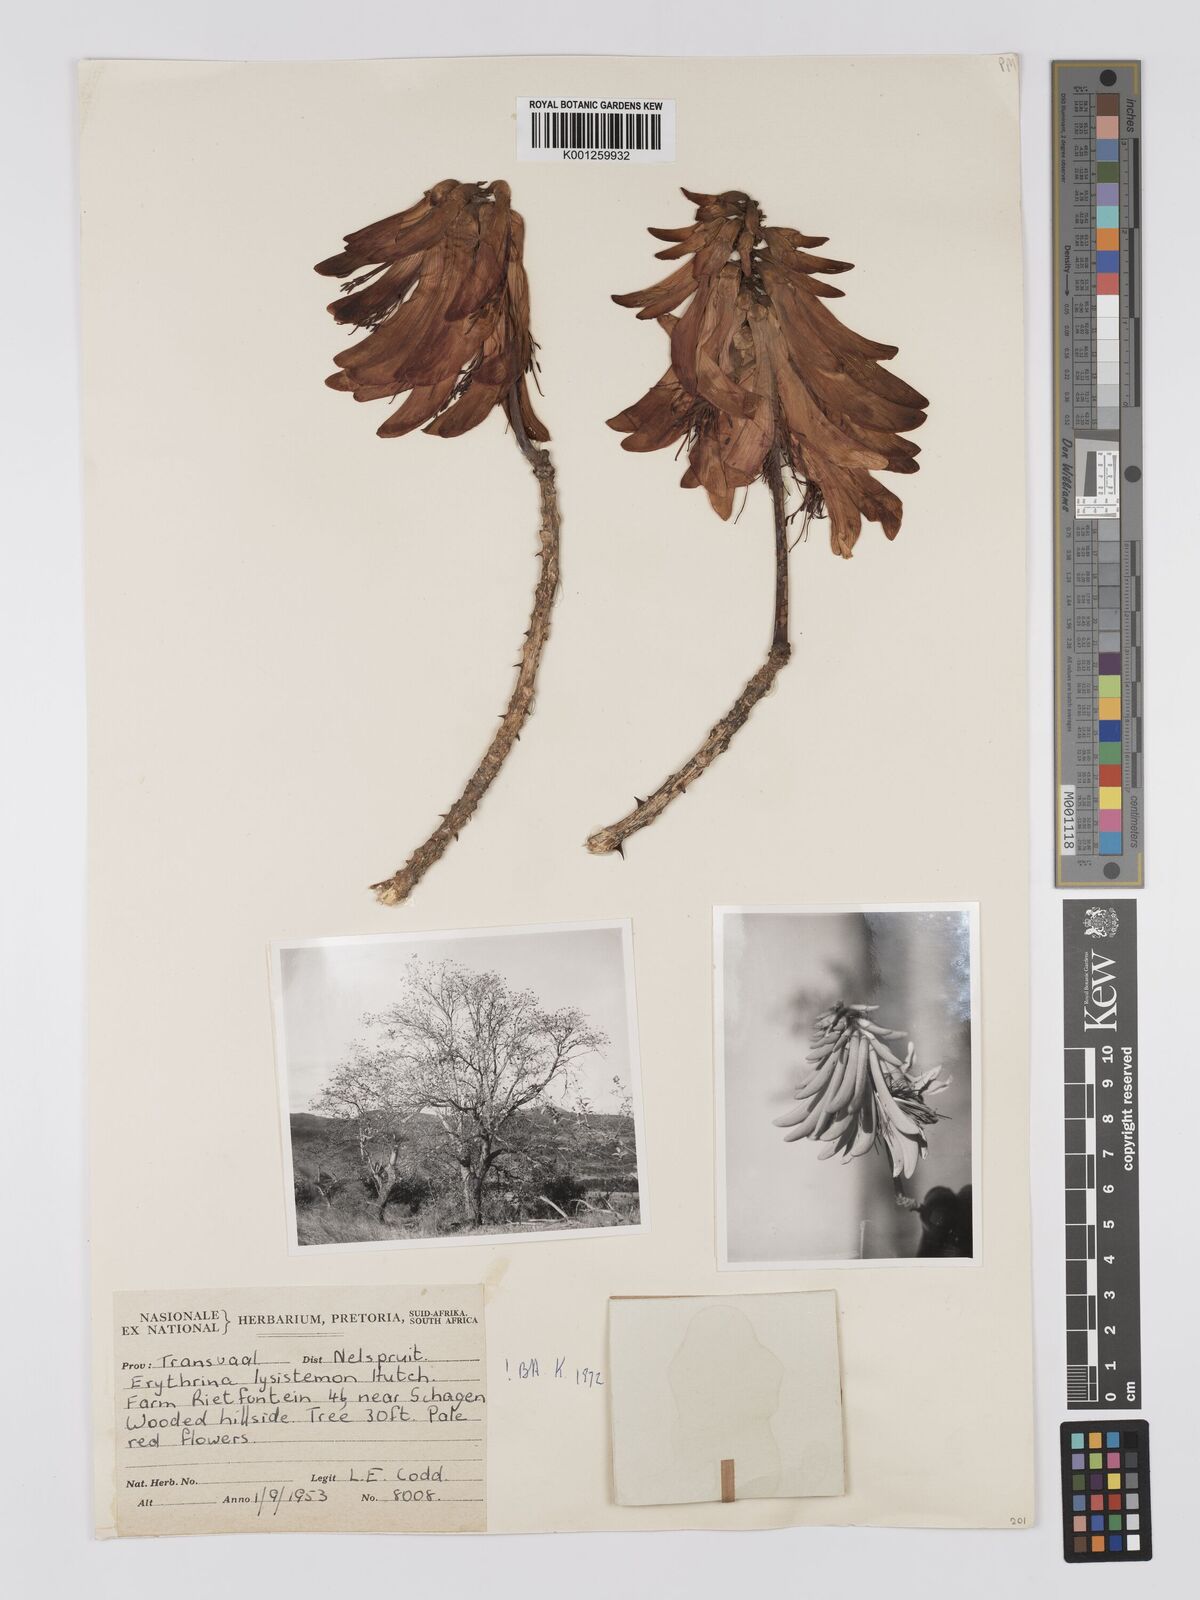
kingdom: Plantae
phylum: Tracheophyta
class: Magnoliopsida
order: Fabales
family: Fabaceae
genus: Erythrina
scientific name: Erythrina lysistemon
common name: Common coral tree
